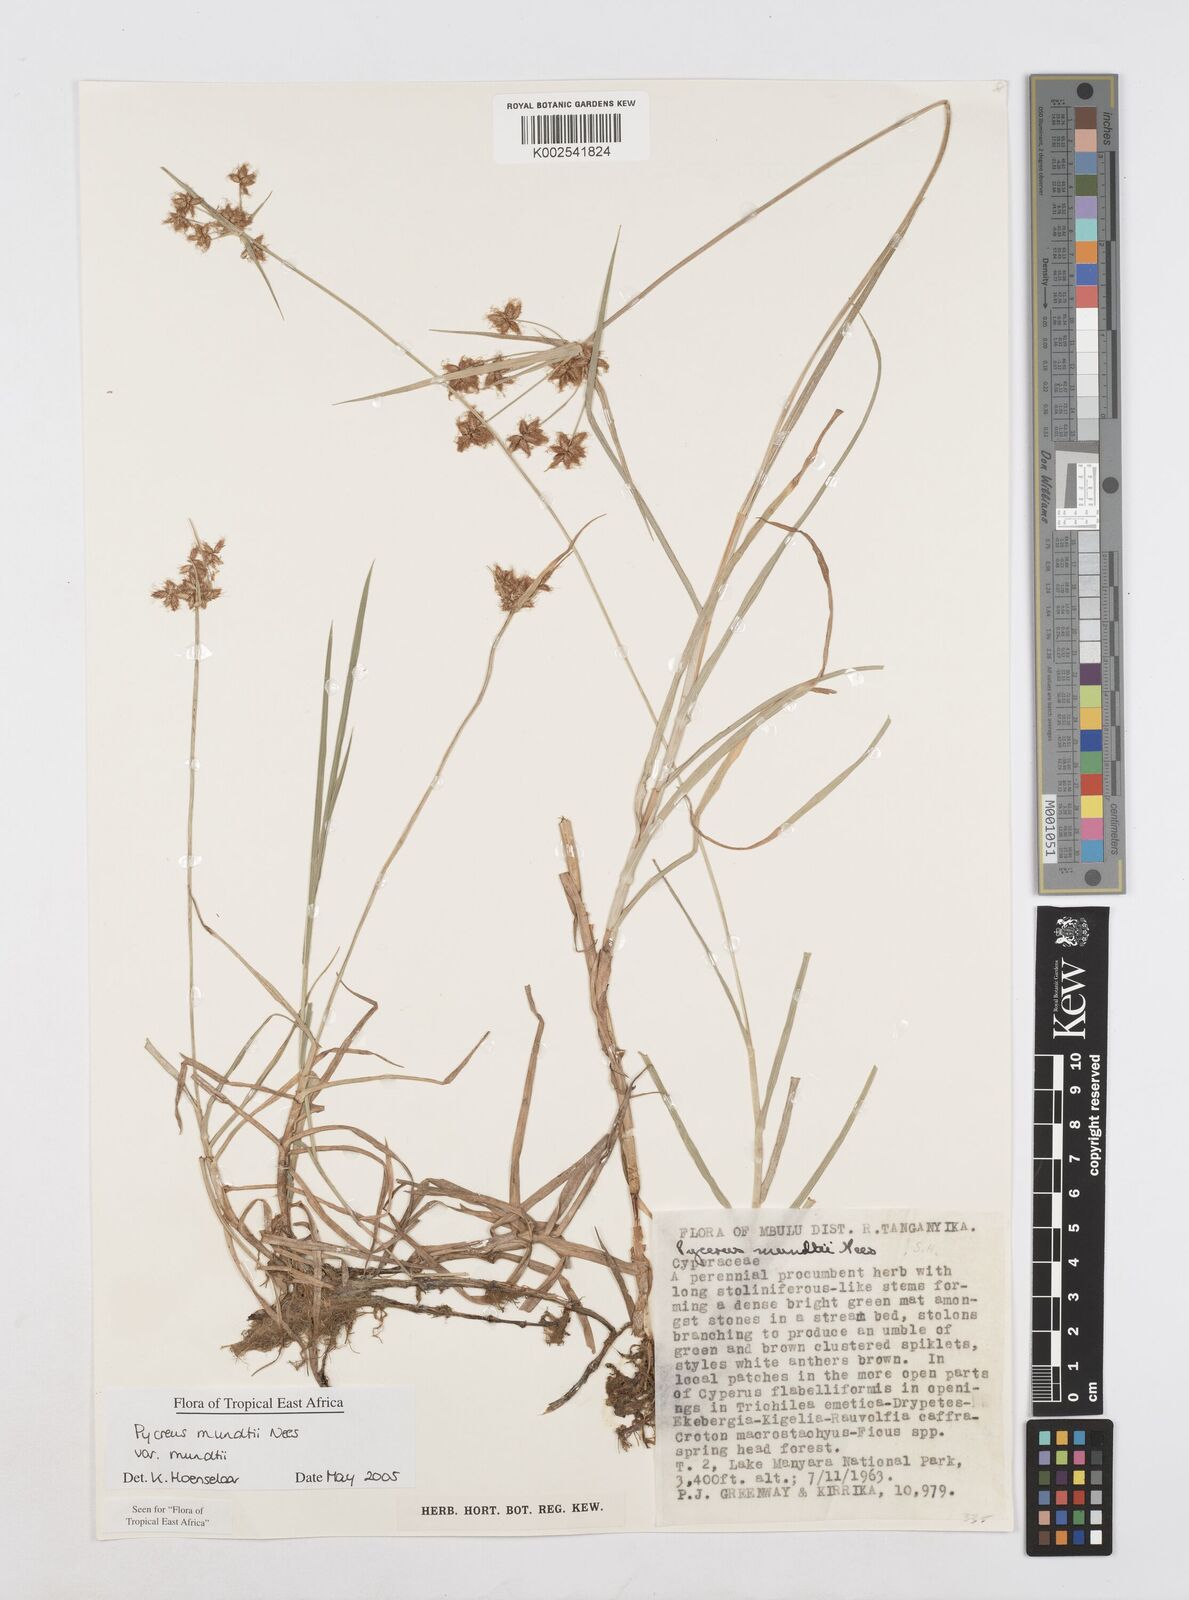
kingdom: Plantae
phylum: Tracheophyta
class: Liliopsida
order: Poales
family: Cyperaceae
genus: Cyperus
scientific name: Cyperus mundii
